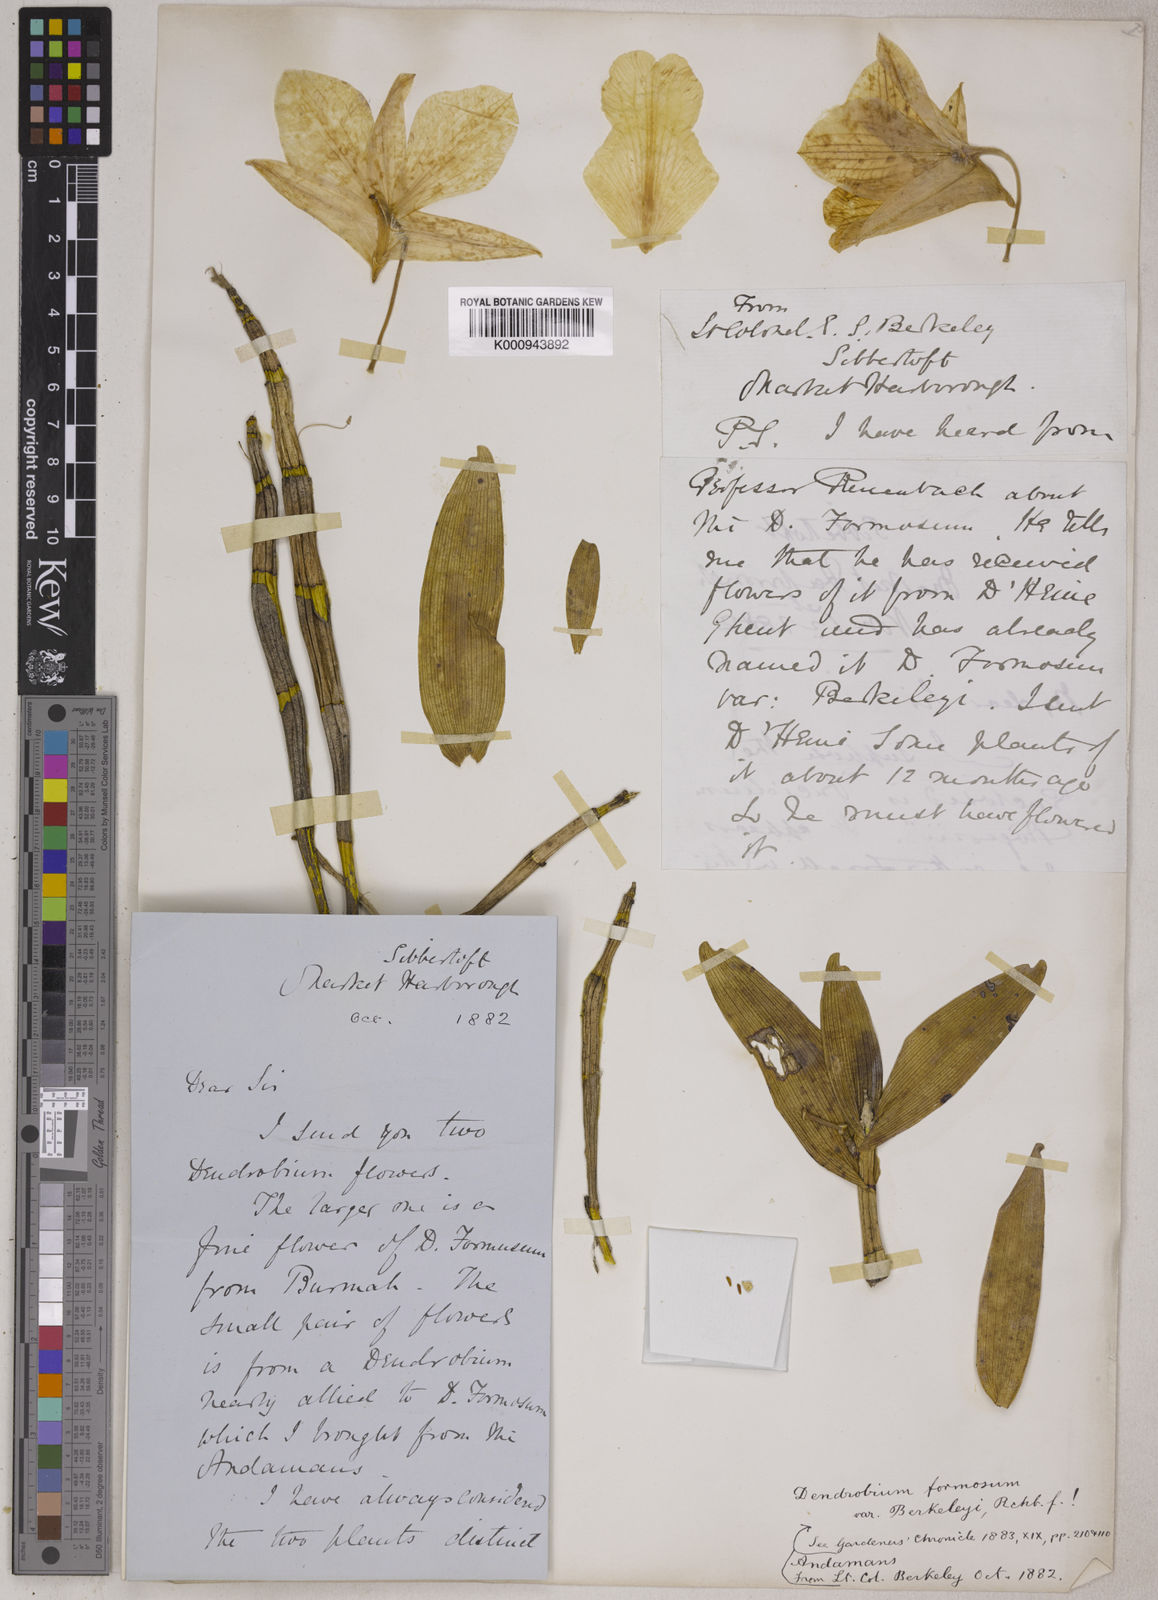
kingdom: Plantae
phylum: Tracheophyta
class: Liliopsida
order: Asparagales
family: Orchidaceae
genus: Dendrobium
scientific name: Dendrobium
